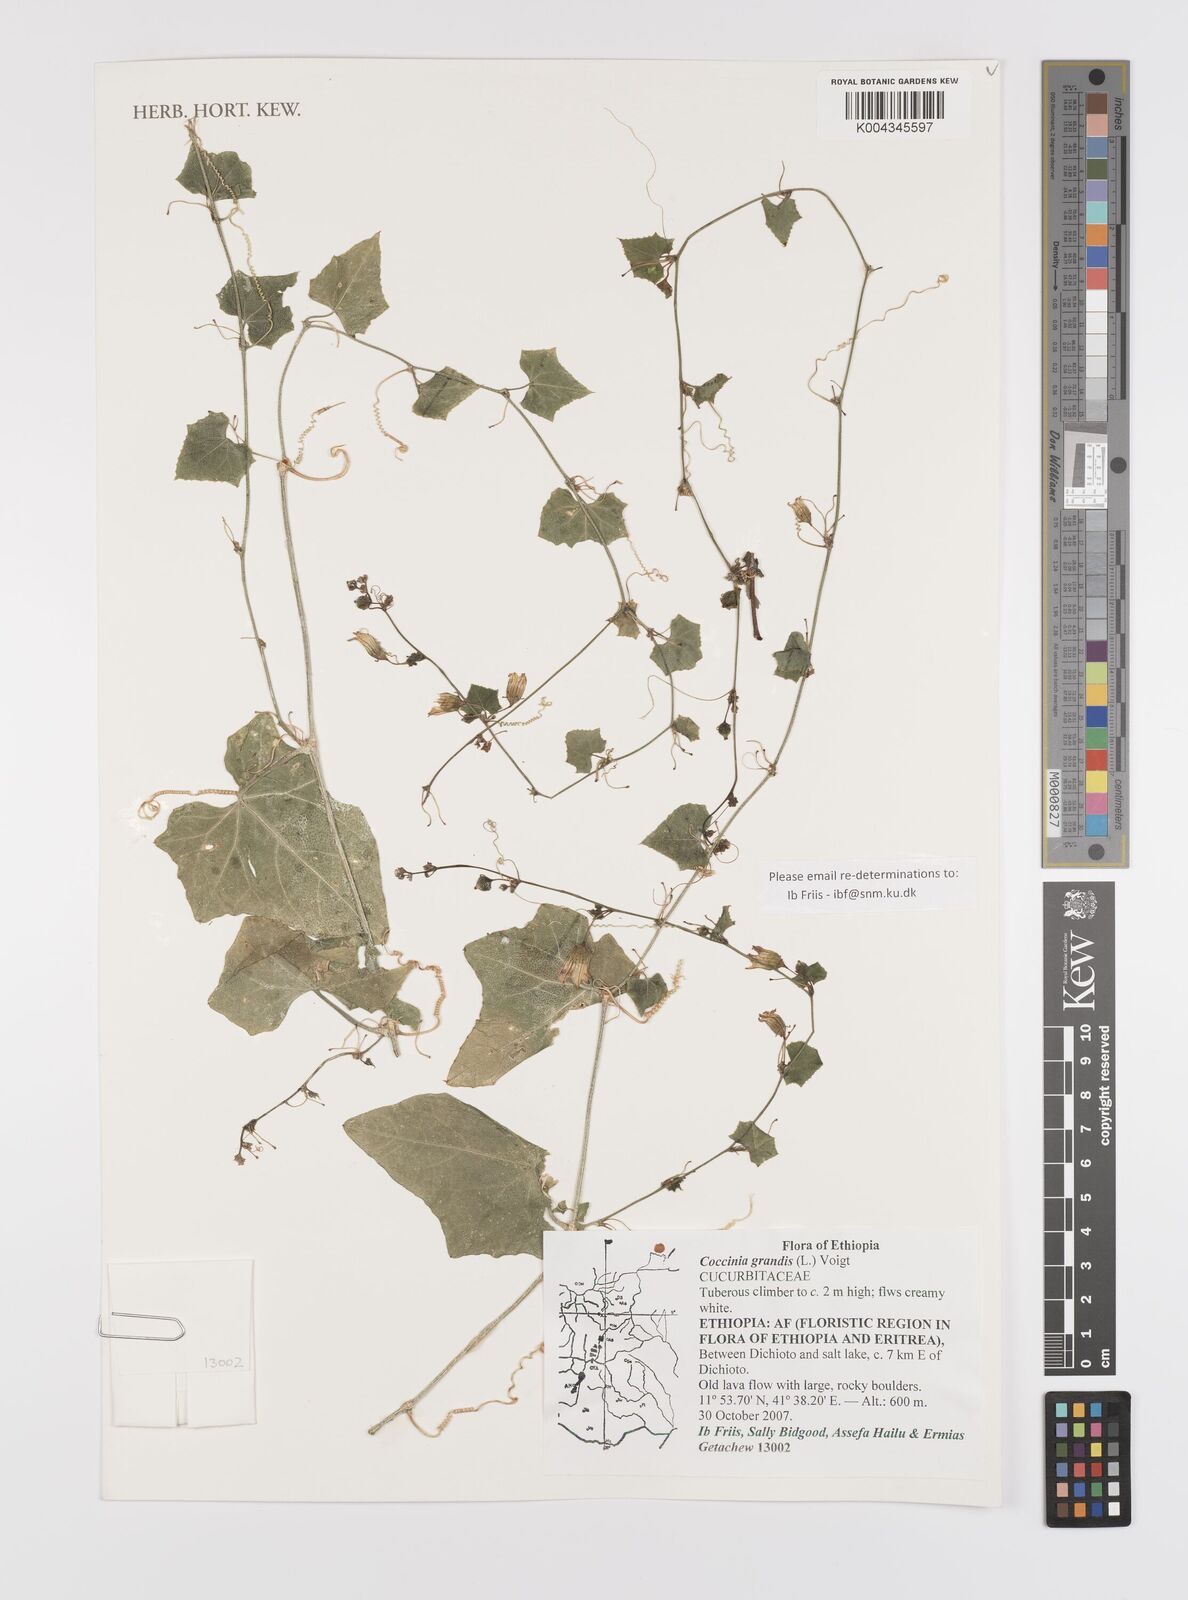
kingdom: Plantae
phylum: Tracheophyta
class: Magnoliopsida
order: Cucurbitales
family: Cucurbitaceae
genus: Coccinia
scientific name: Coccinia grandis
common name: Ivy gourd
